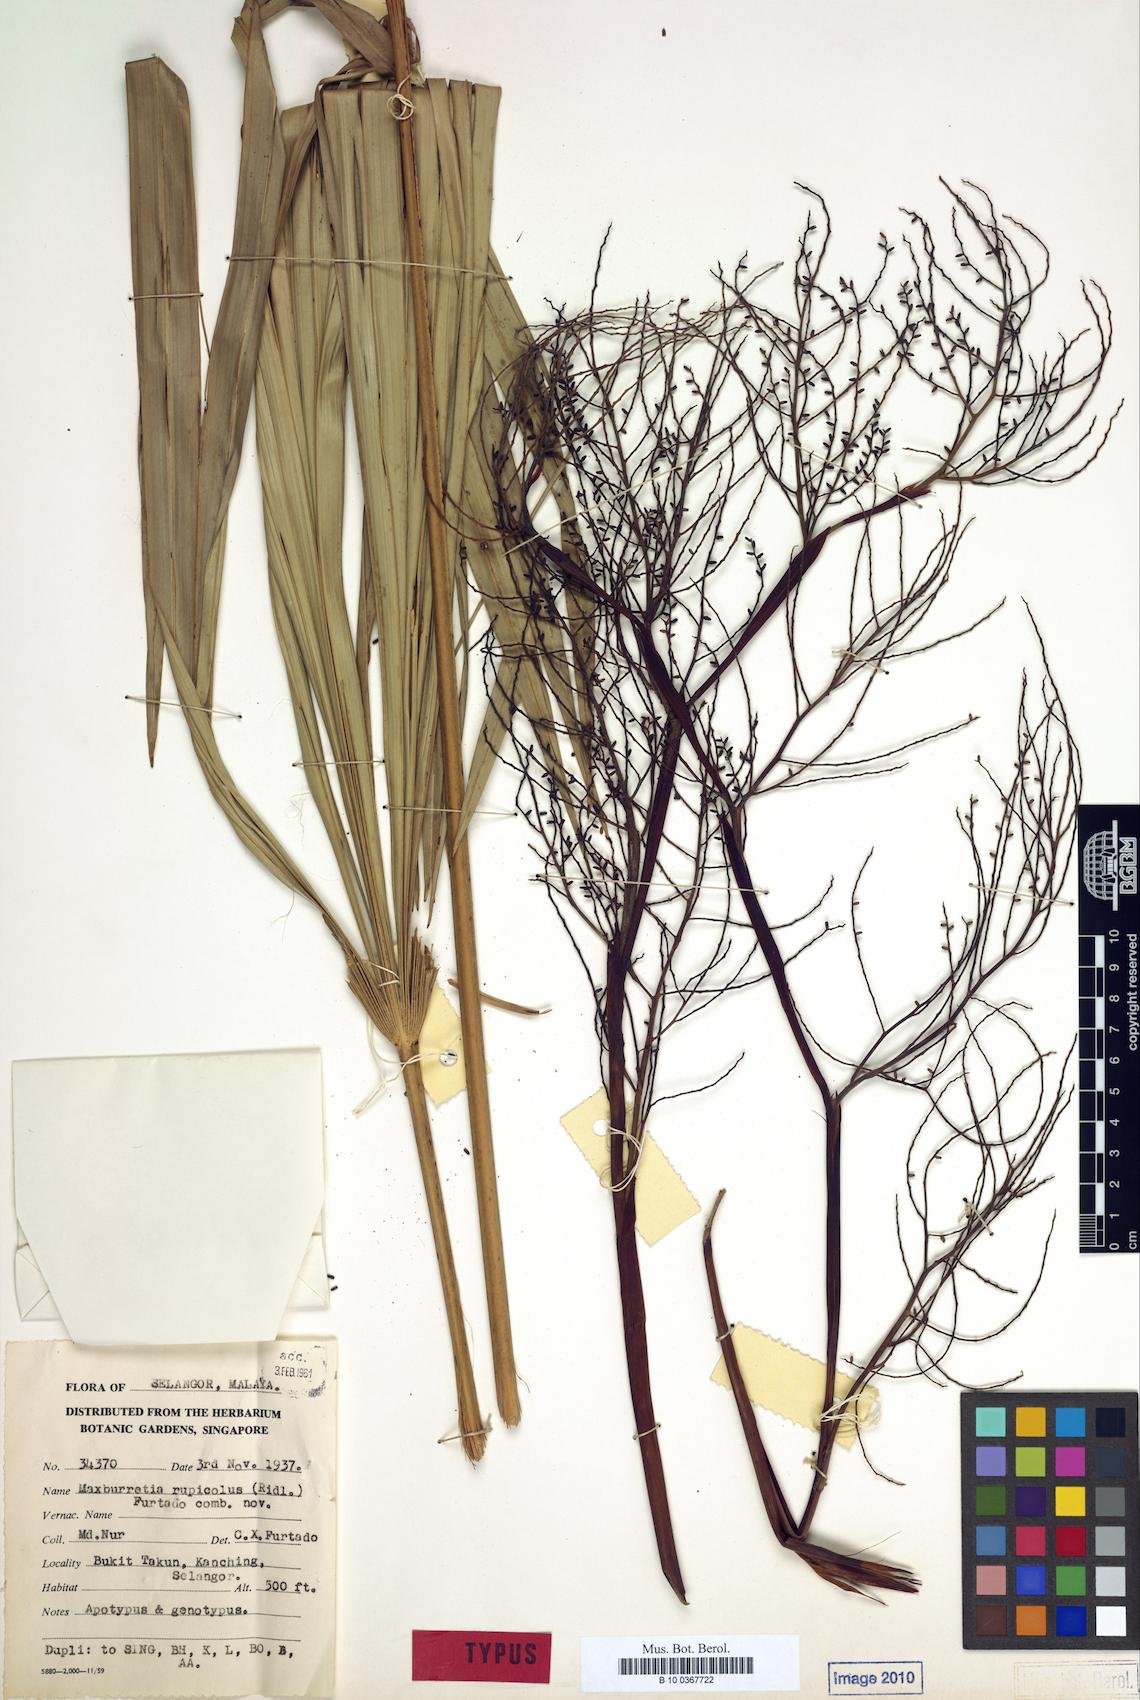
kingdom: Plantae
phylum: Tracheophyta
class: Liliopsida
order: Arecales
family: Arecaceae
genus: Maxburretia
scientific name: Maxburretia rupicola
